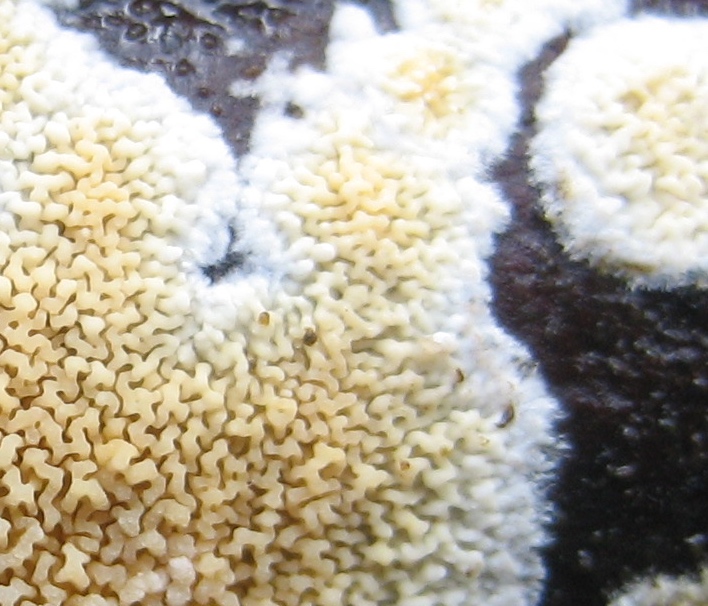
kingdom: Fungi
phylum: Basidiomycota
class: Agaricomycetes
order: Boletales
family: Hygrophoropsidaceae
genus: Leucogyrophana
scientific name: Leucogyrophana
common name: hussvamp
